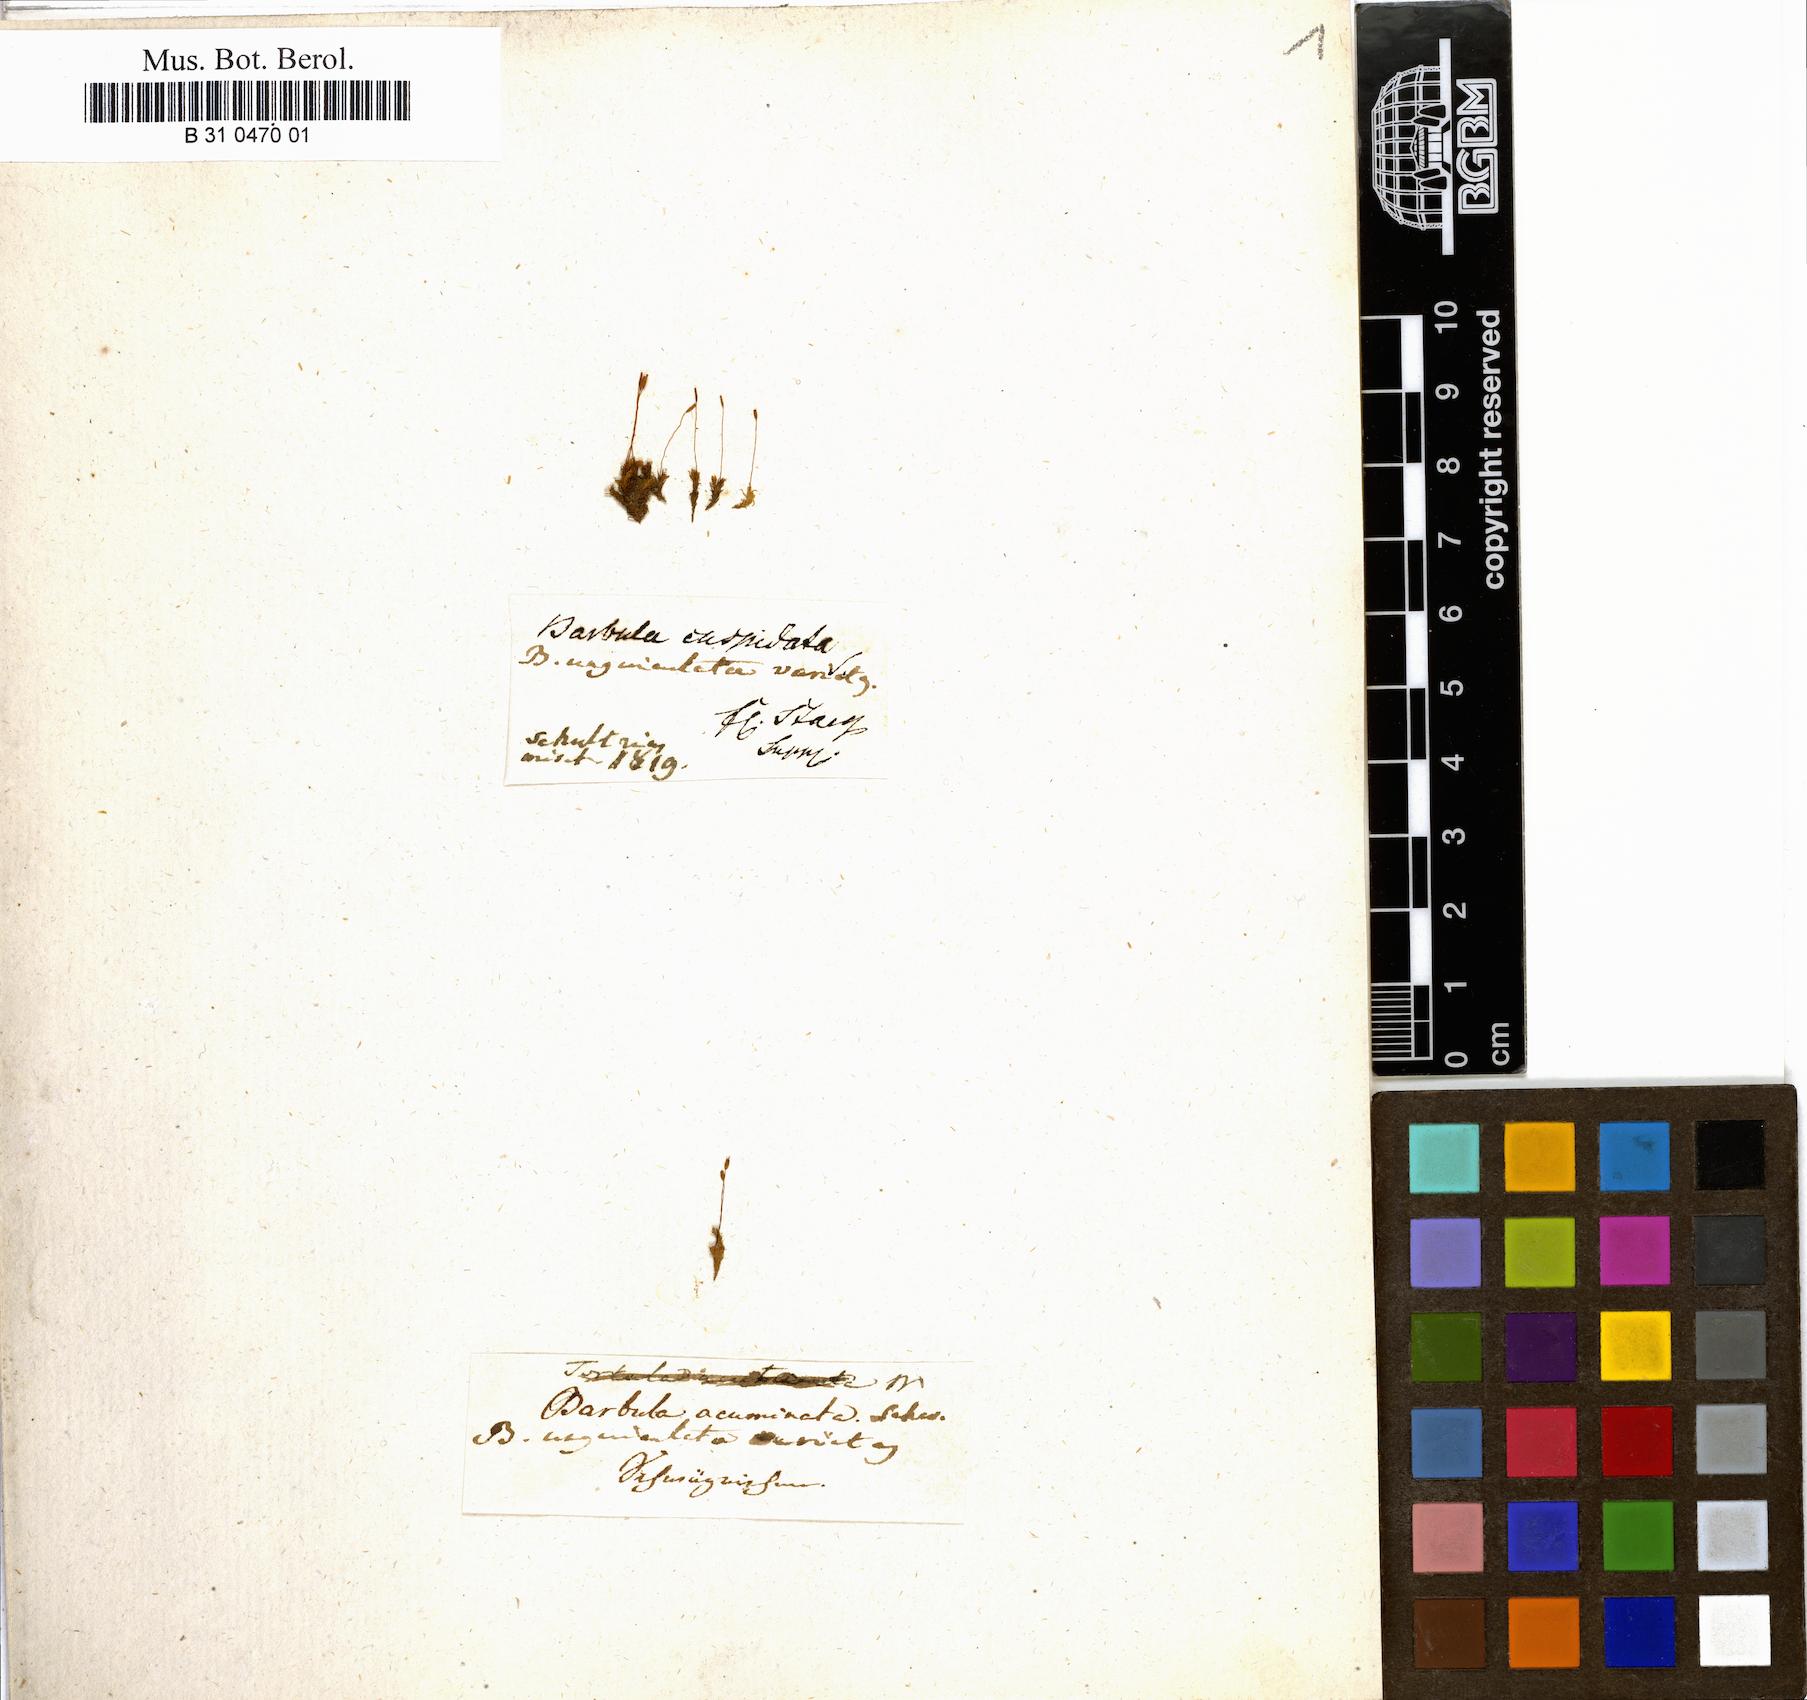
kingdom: Plantae
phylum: Bryophyta
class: Bryopsida
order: Pottiales
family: Pottiaceae
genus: Barbula
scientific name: Barbula unguiculata
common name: Prickly beard moss
